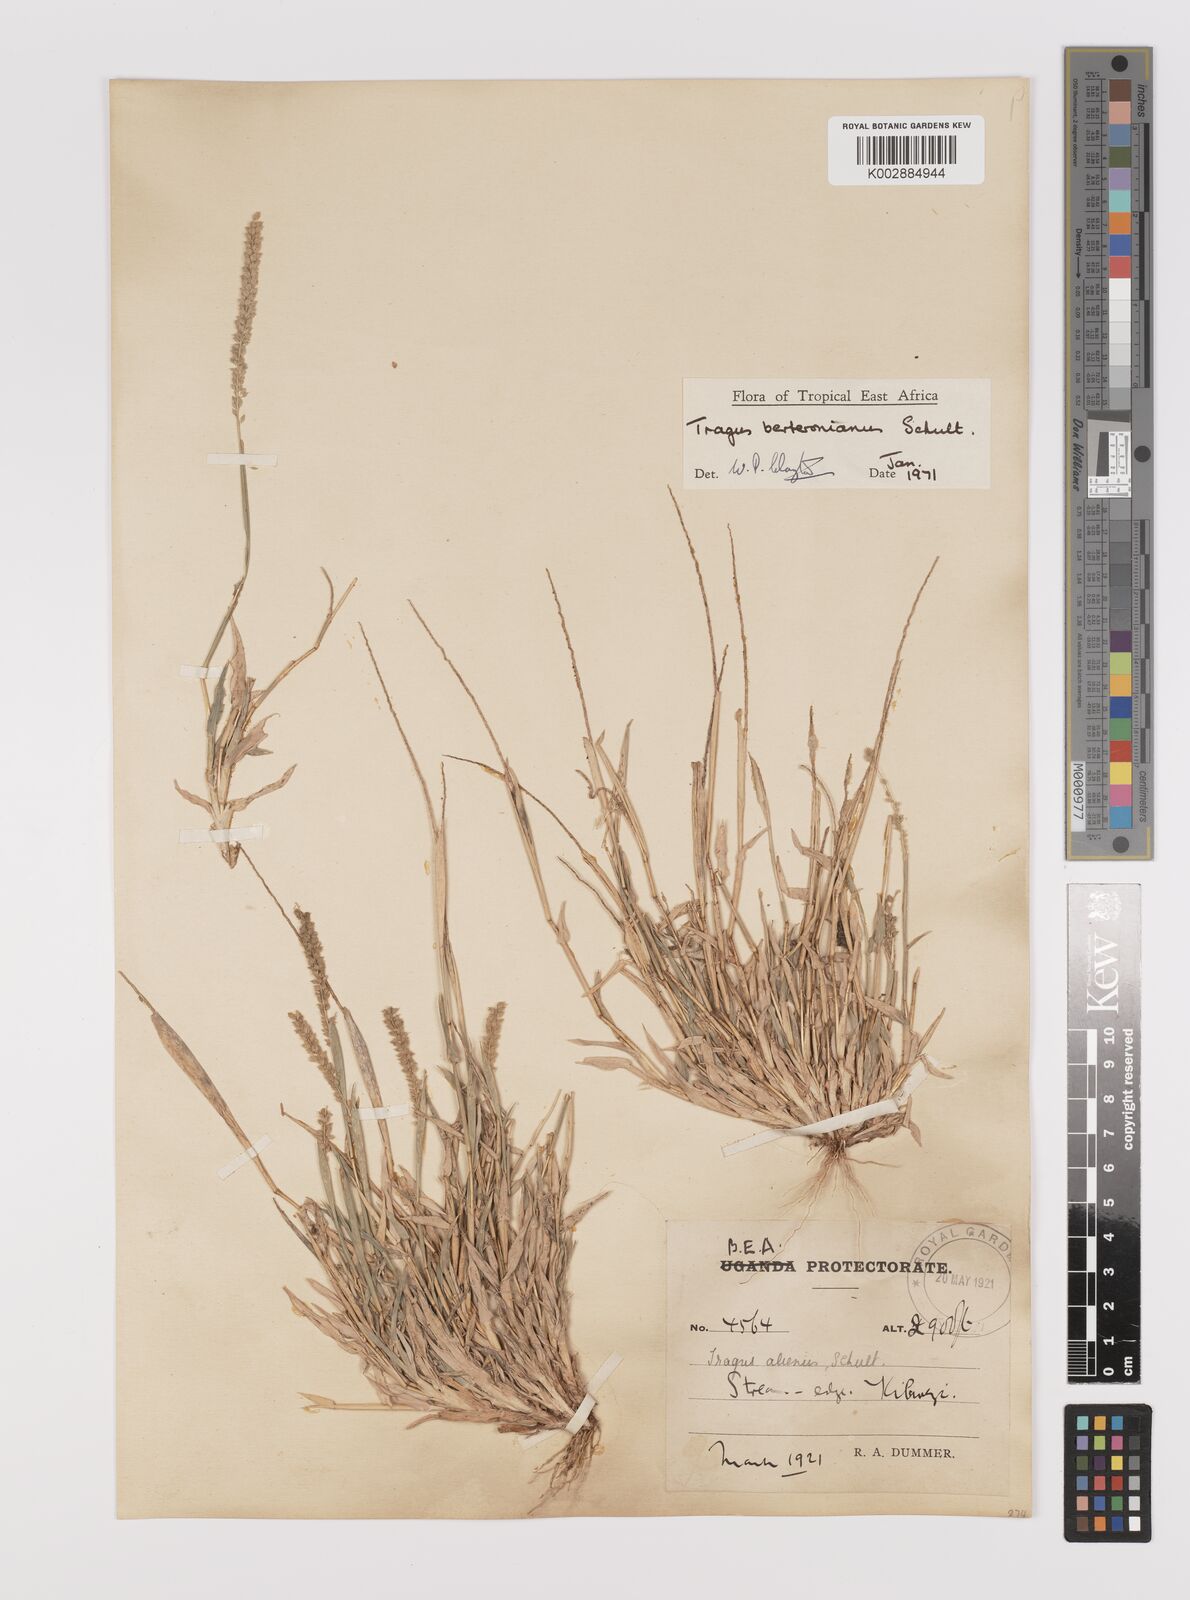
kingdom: Plantae
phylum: Tracheophyta
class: Liliopsida
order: Poales
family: Poaceae
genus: Tragus
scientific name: Tragus berteronianus
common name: African bur-grass
